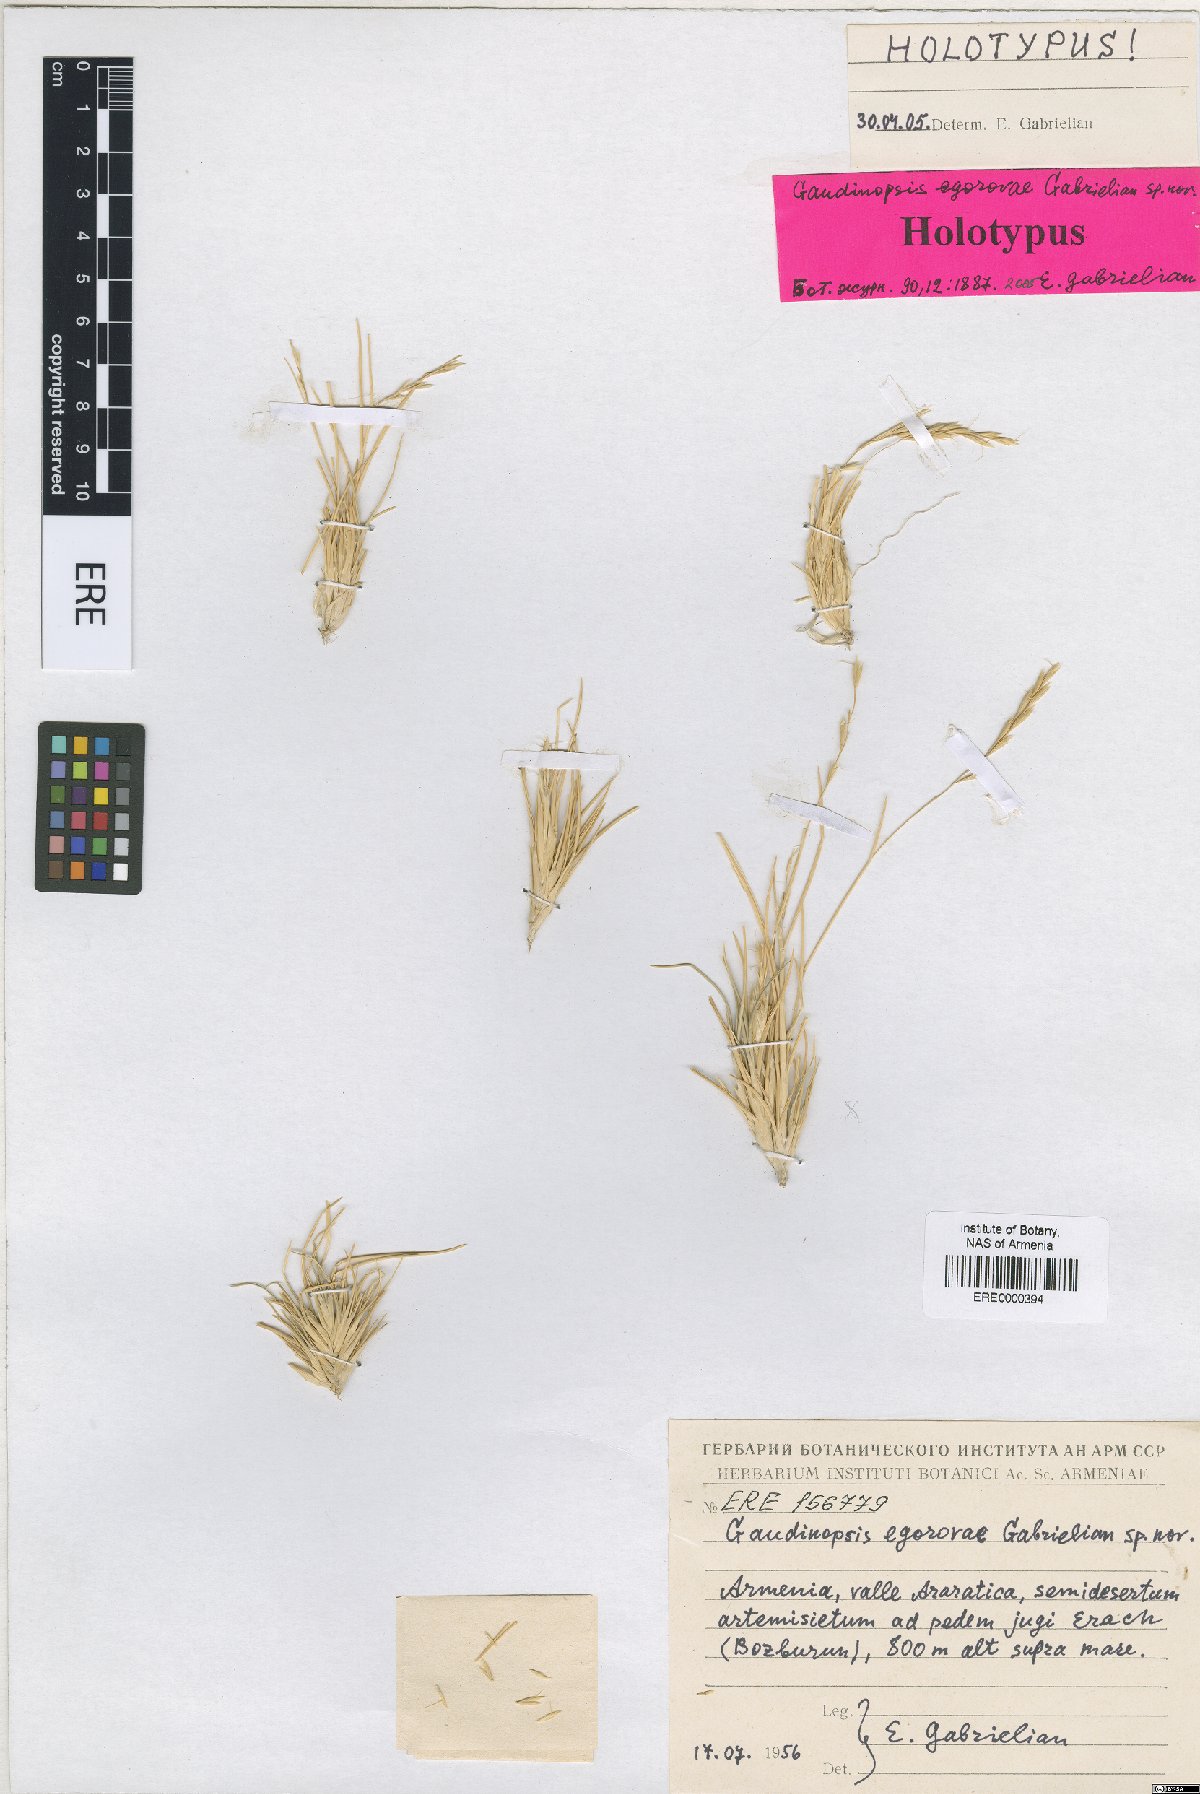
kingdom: Plantae
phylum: Tracheophyta
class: Liliopsida
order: Poales
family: Poaceae
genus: Ventenata
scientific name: Ventenata Gaudinopsis egorovae
